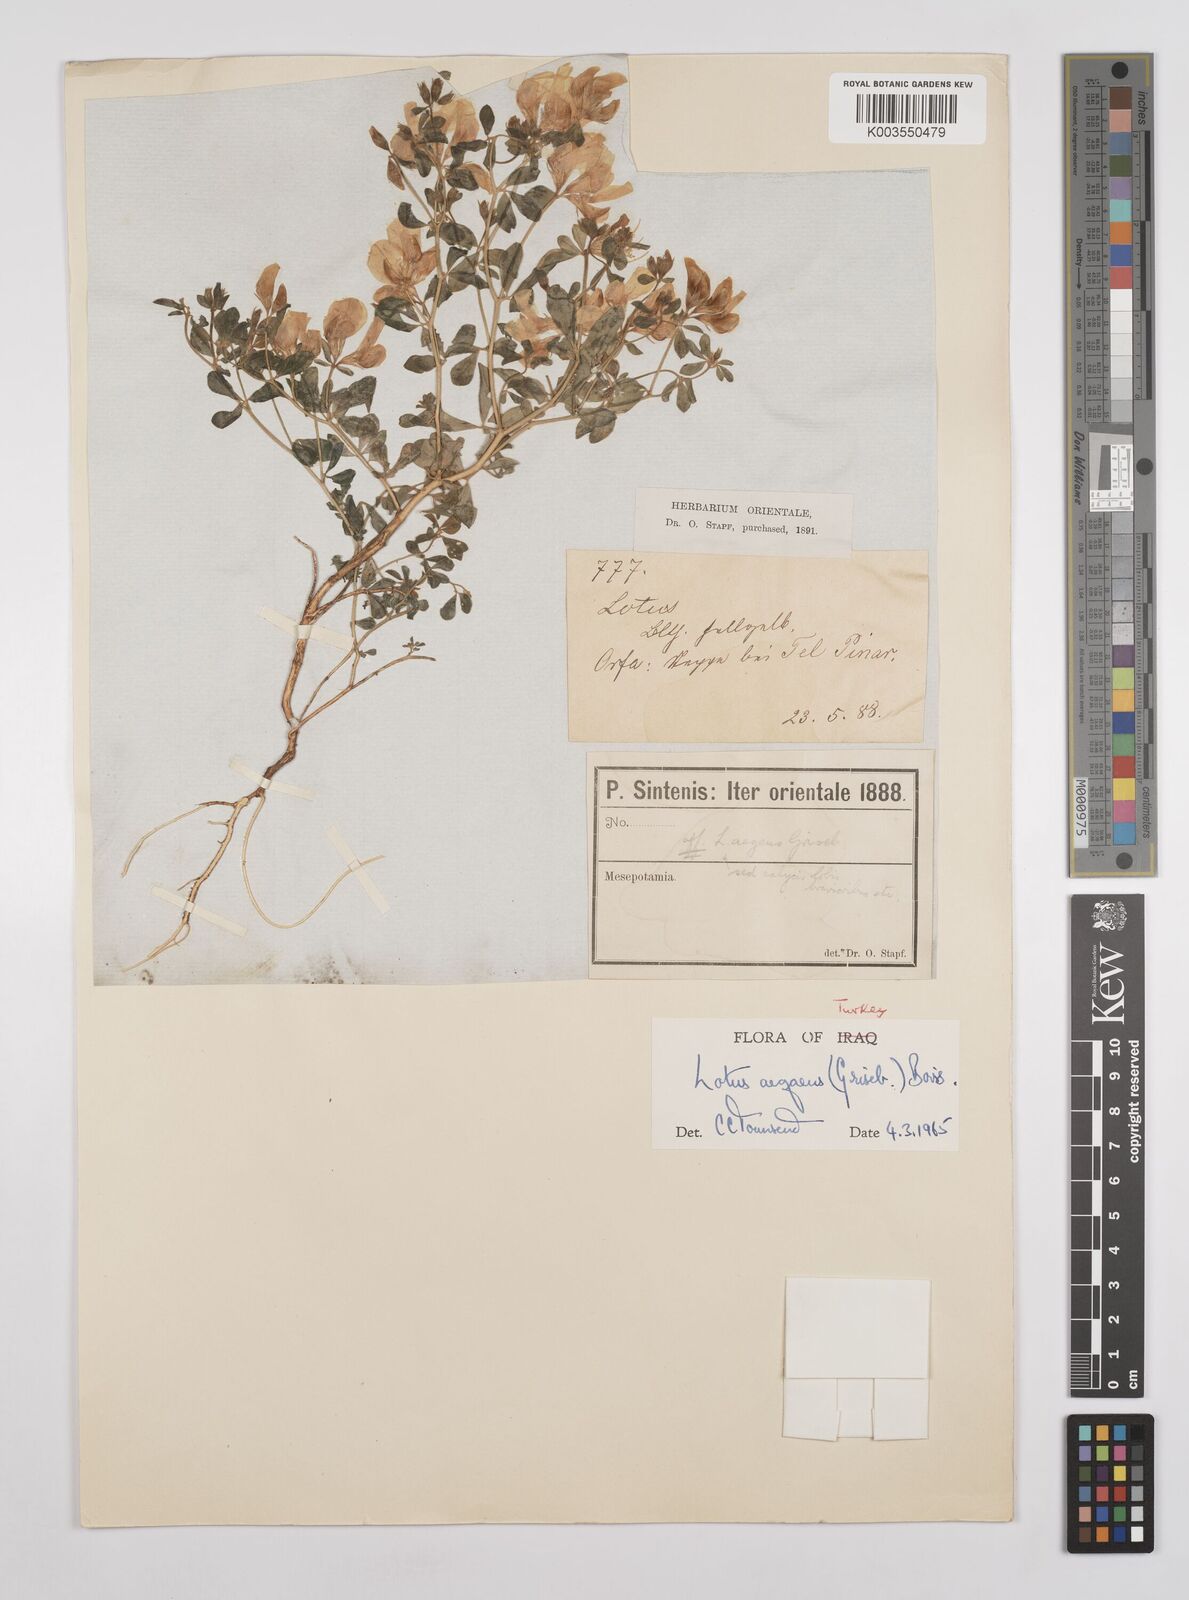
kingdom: Plantae
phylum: Tracheophyta
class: Magnoliopsida
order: Fabales
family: Fabaceae
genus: Lotus
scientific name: Lotus aegaeus
